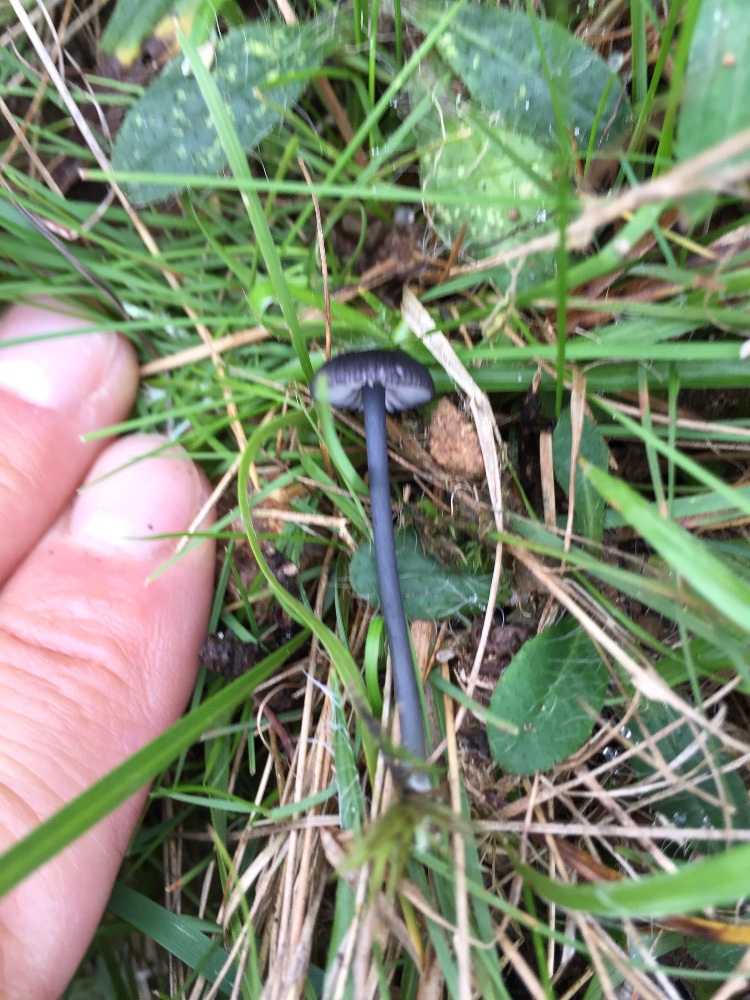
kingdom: Fungi
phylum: Basidiomycota
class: Agaricomycetes
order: Agaricales
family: Entolomataceae
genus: Entoloma
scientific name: Entoloma chalybeum
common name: blåbladet rødblad
